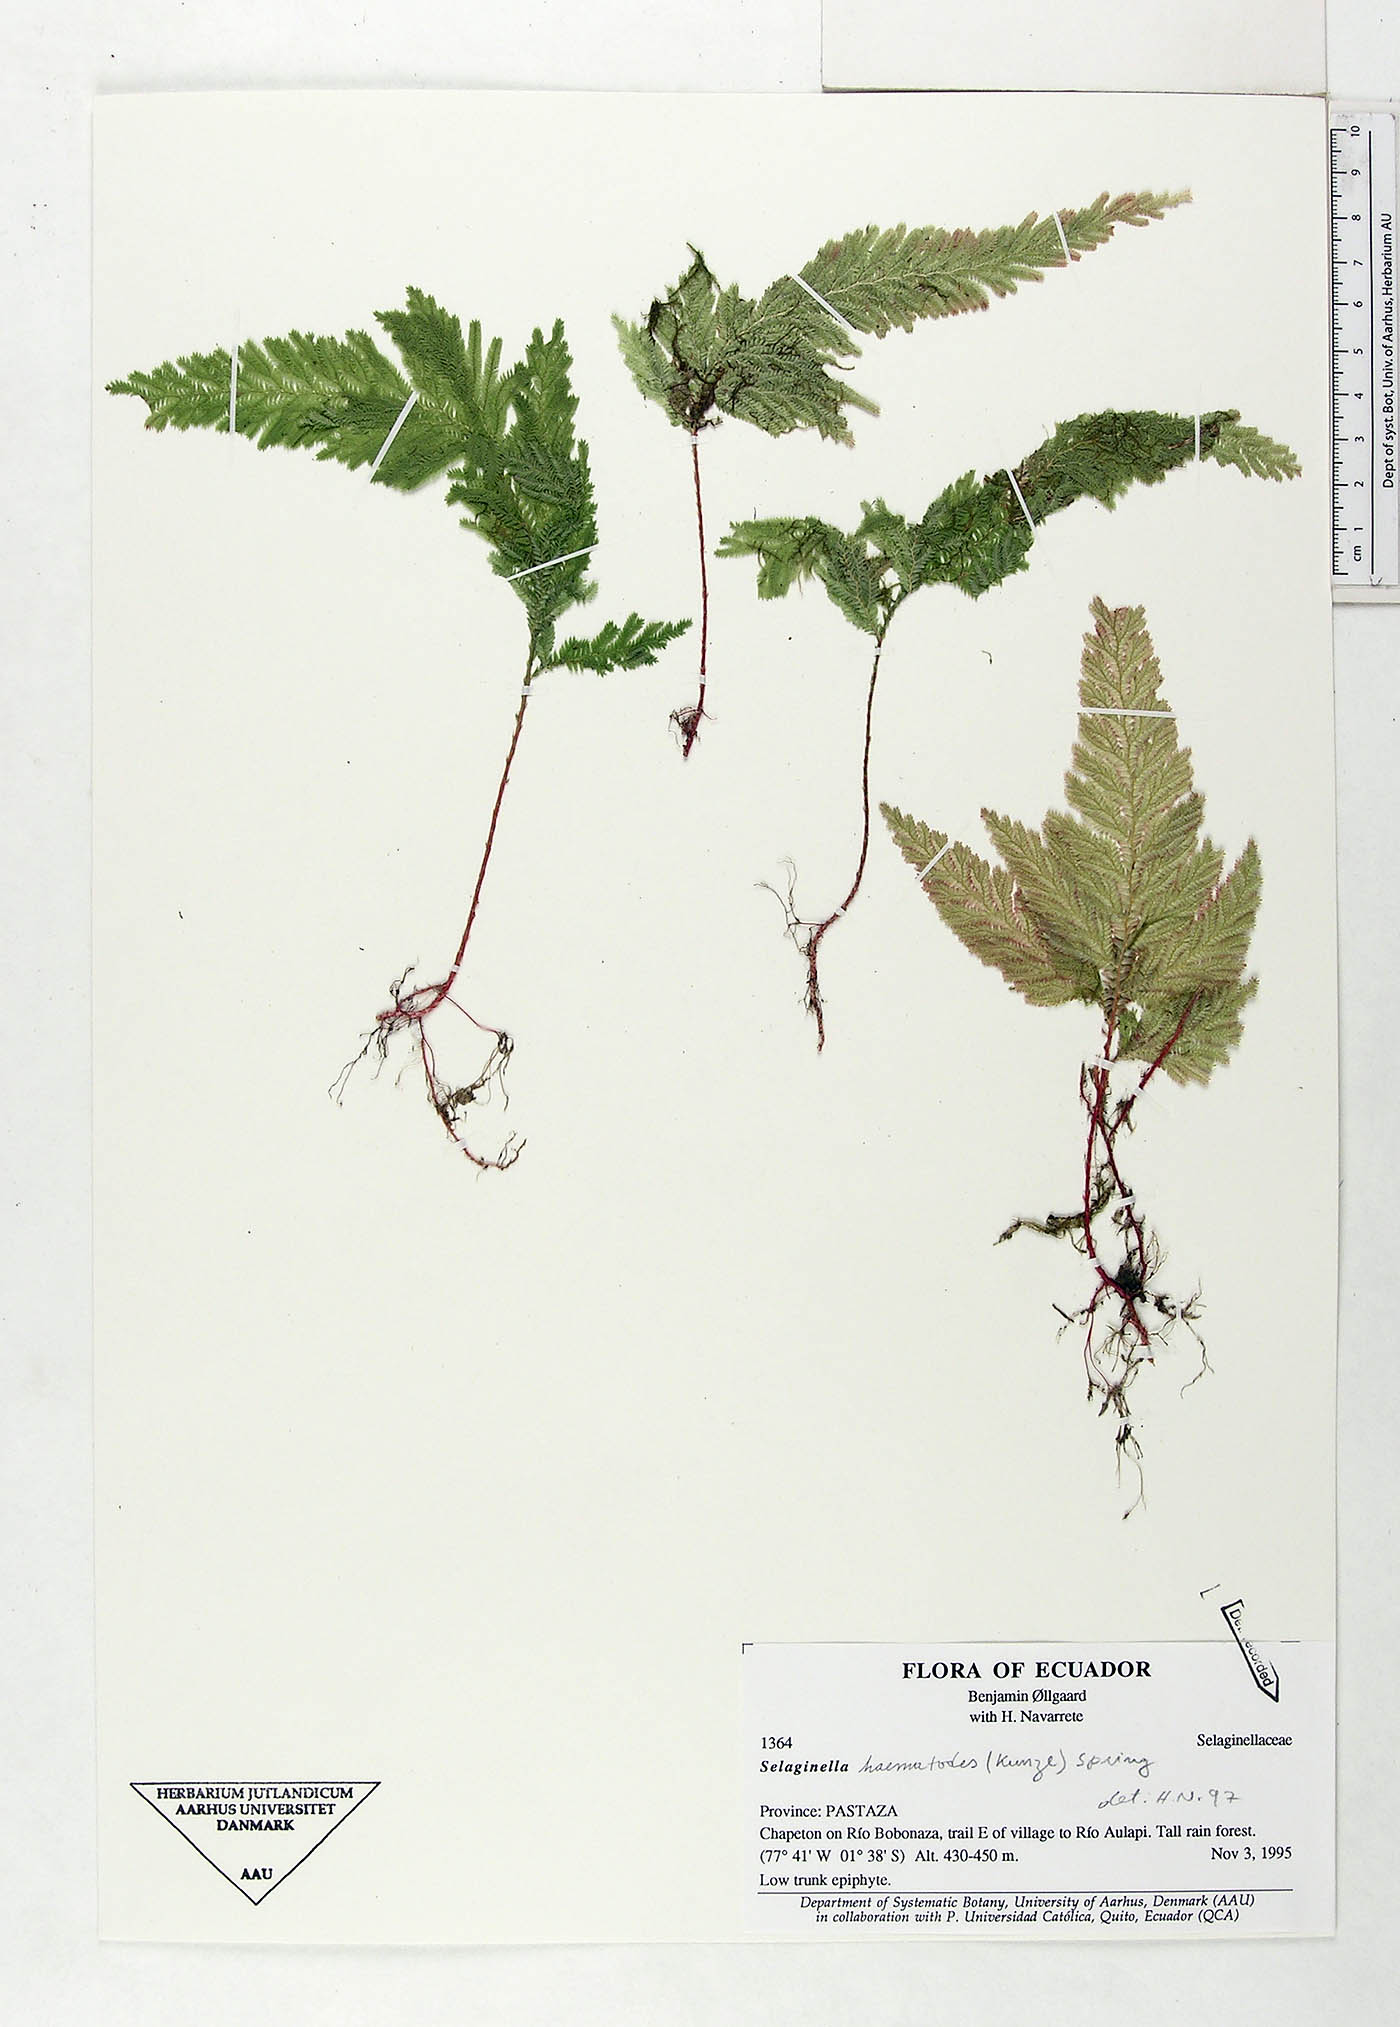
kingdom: Plantae
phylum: Tracheophyta
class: Lycopodiopsida
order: Selaginellales
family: Selaginellaceae
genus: Selaginella
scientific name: Selaginella haematodes
